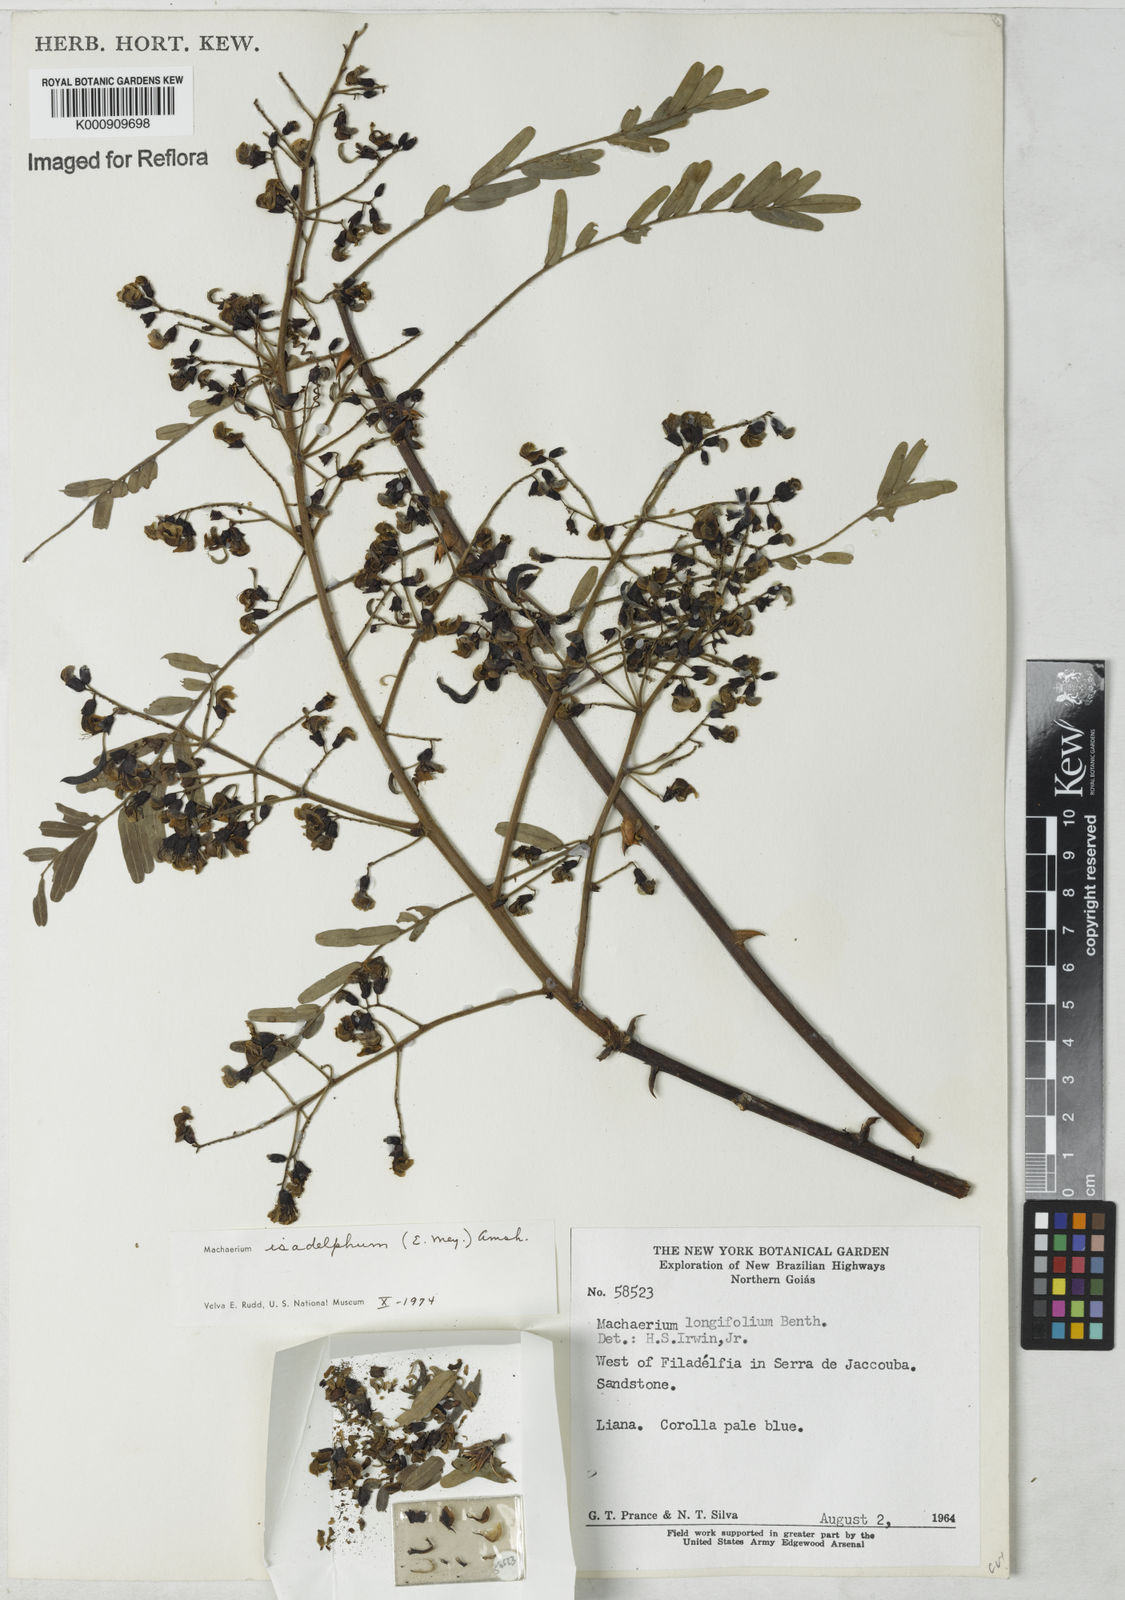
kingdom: Plantae
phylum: Tracheophyta
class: Magnoliopsida
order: Fabales
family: Fabaceae
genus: Machaerium
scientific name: Machaerium isadelphum
